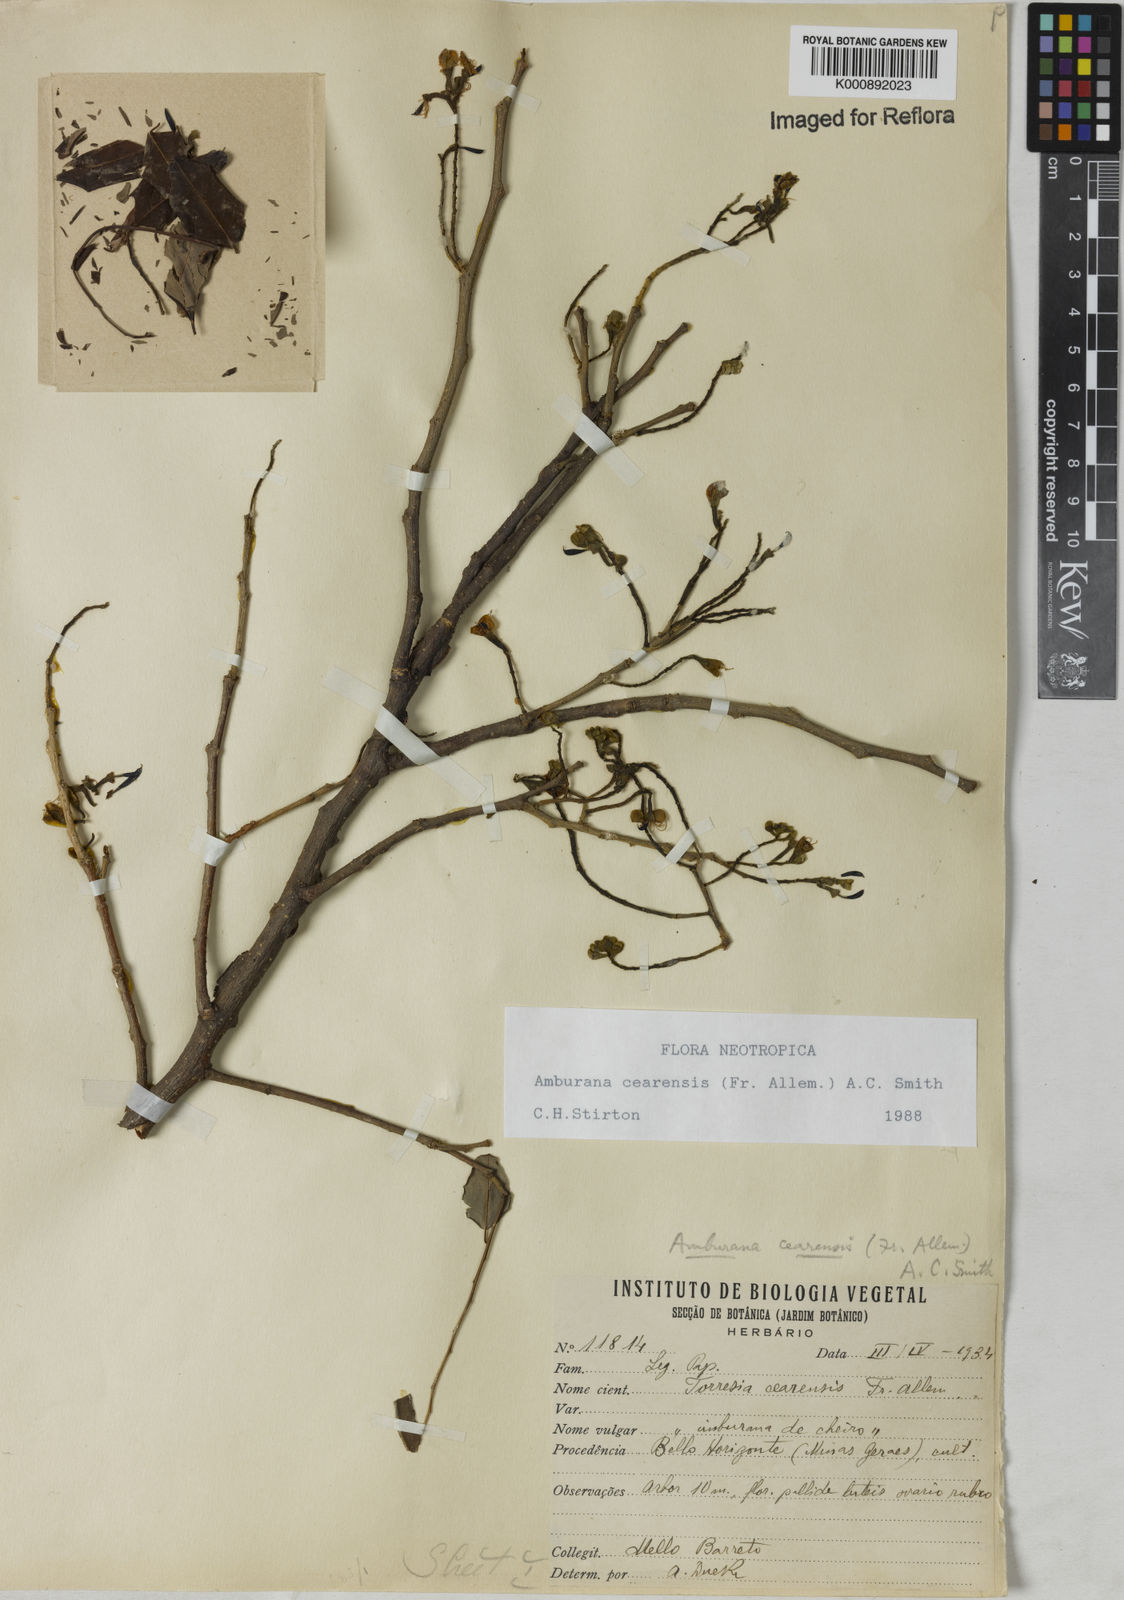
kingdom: Plantae
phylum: Tracheophyta
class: Magnoliopsida
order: Fabales
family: Fabaceae
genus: Amburana
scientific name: Amburana
